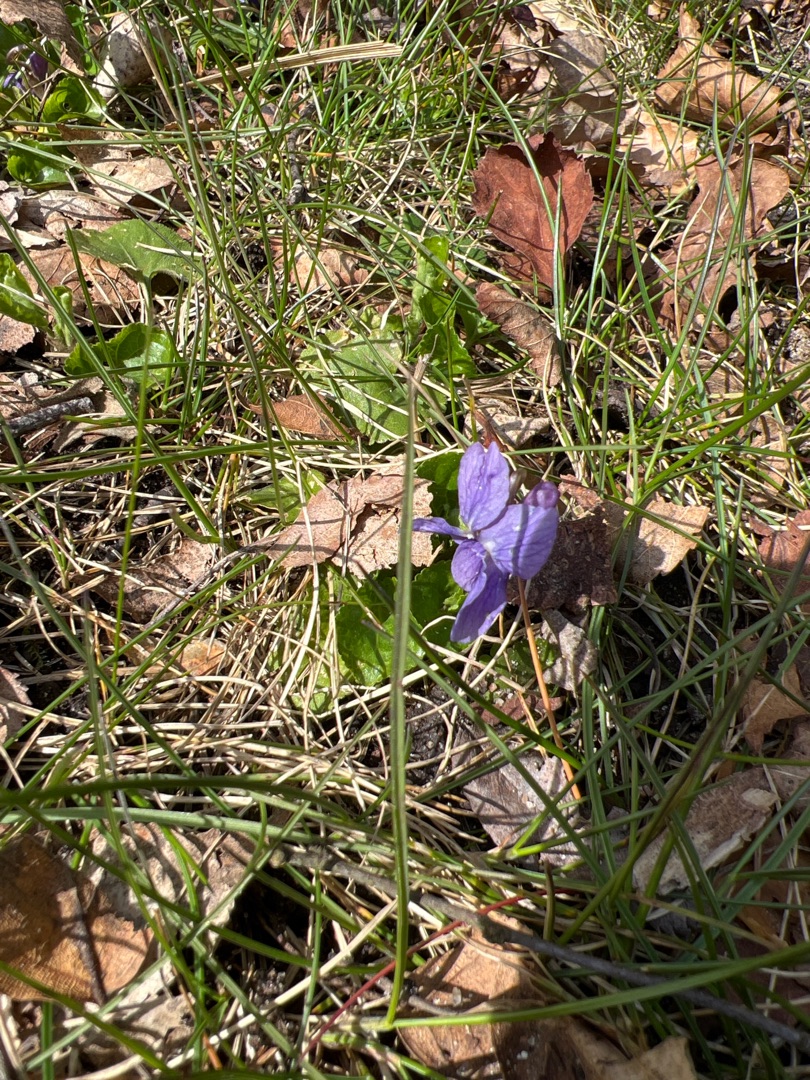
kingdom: Plantae
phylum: Tracheophyta
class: Magnoliopsida
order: Malpighiales
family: Violaceae
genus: Viola
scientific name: Viola odorata
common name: Marts-viol
